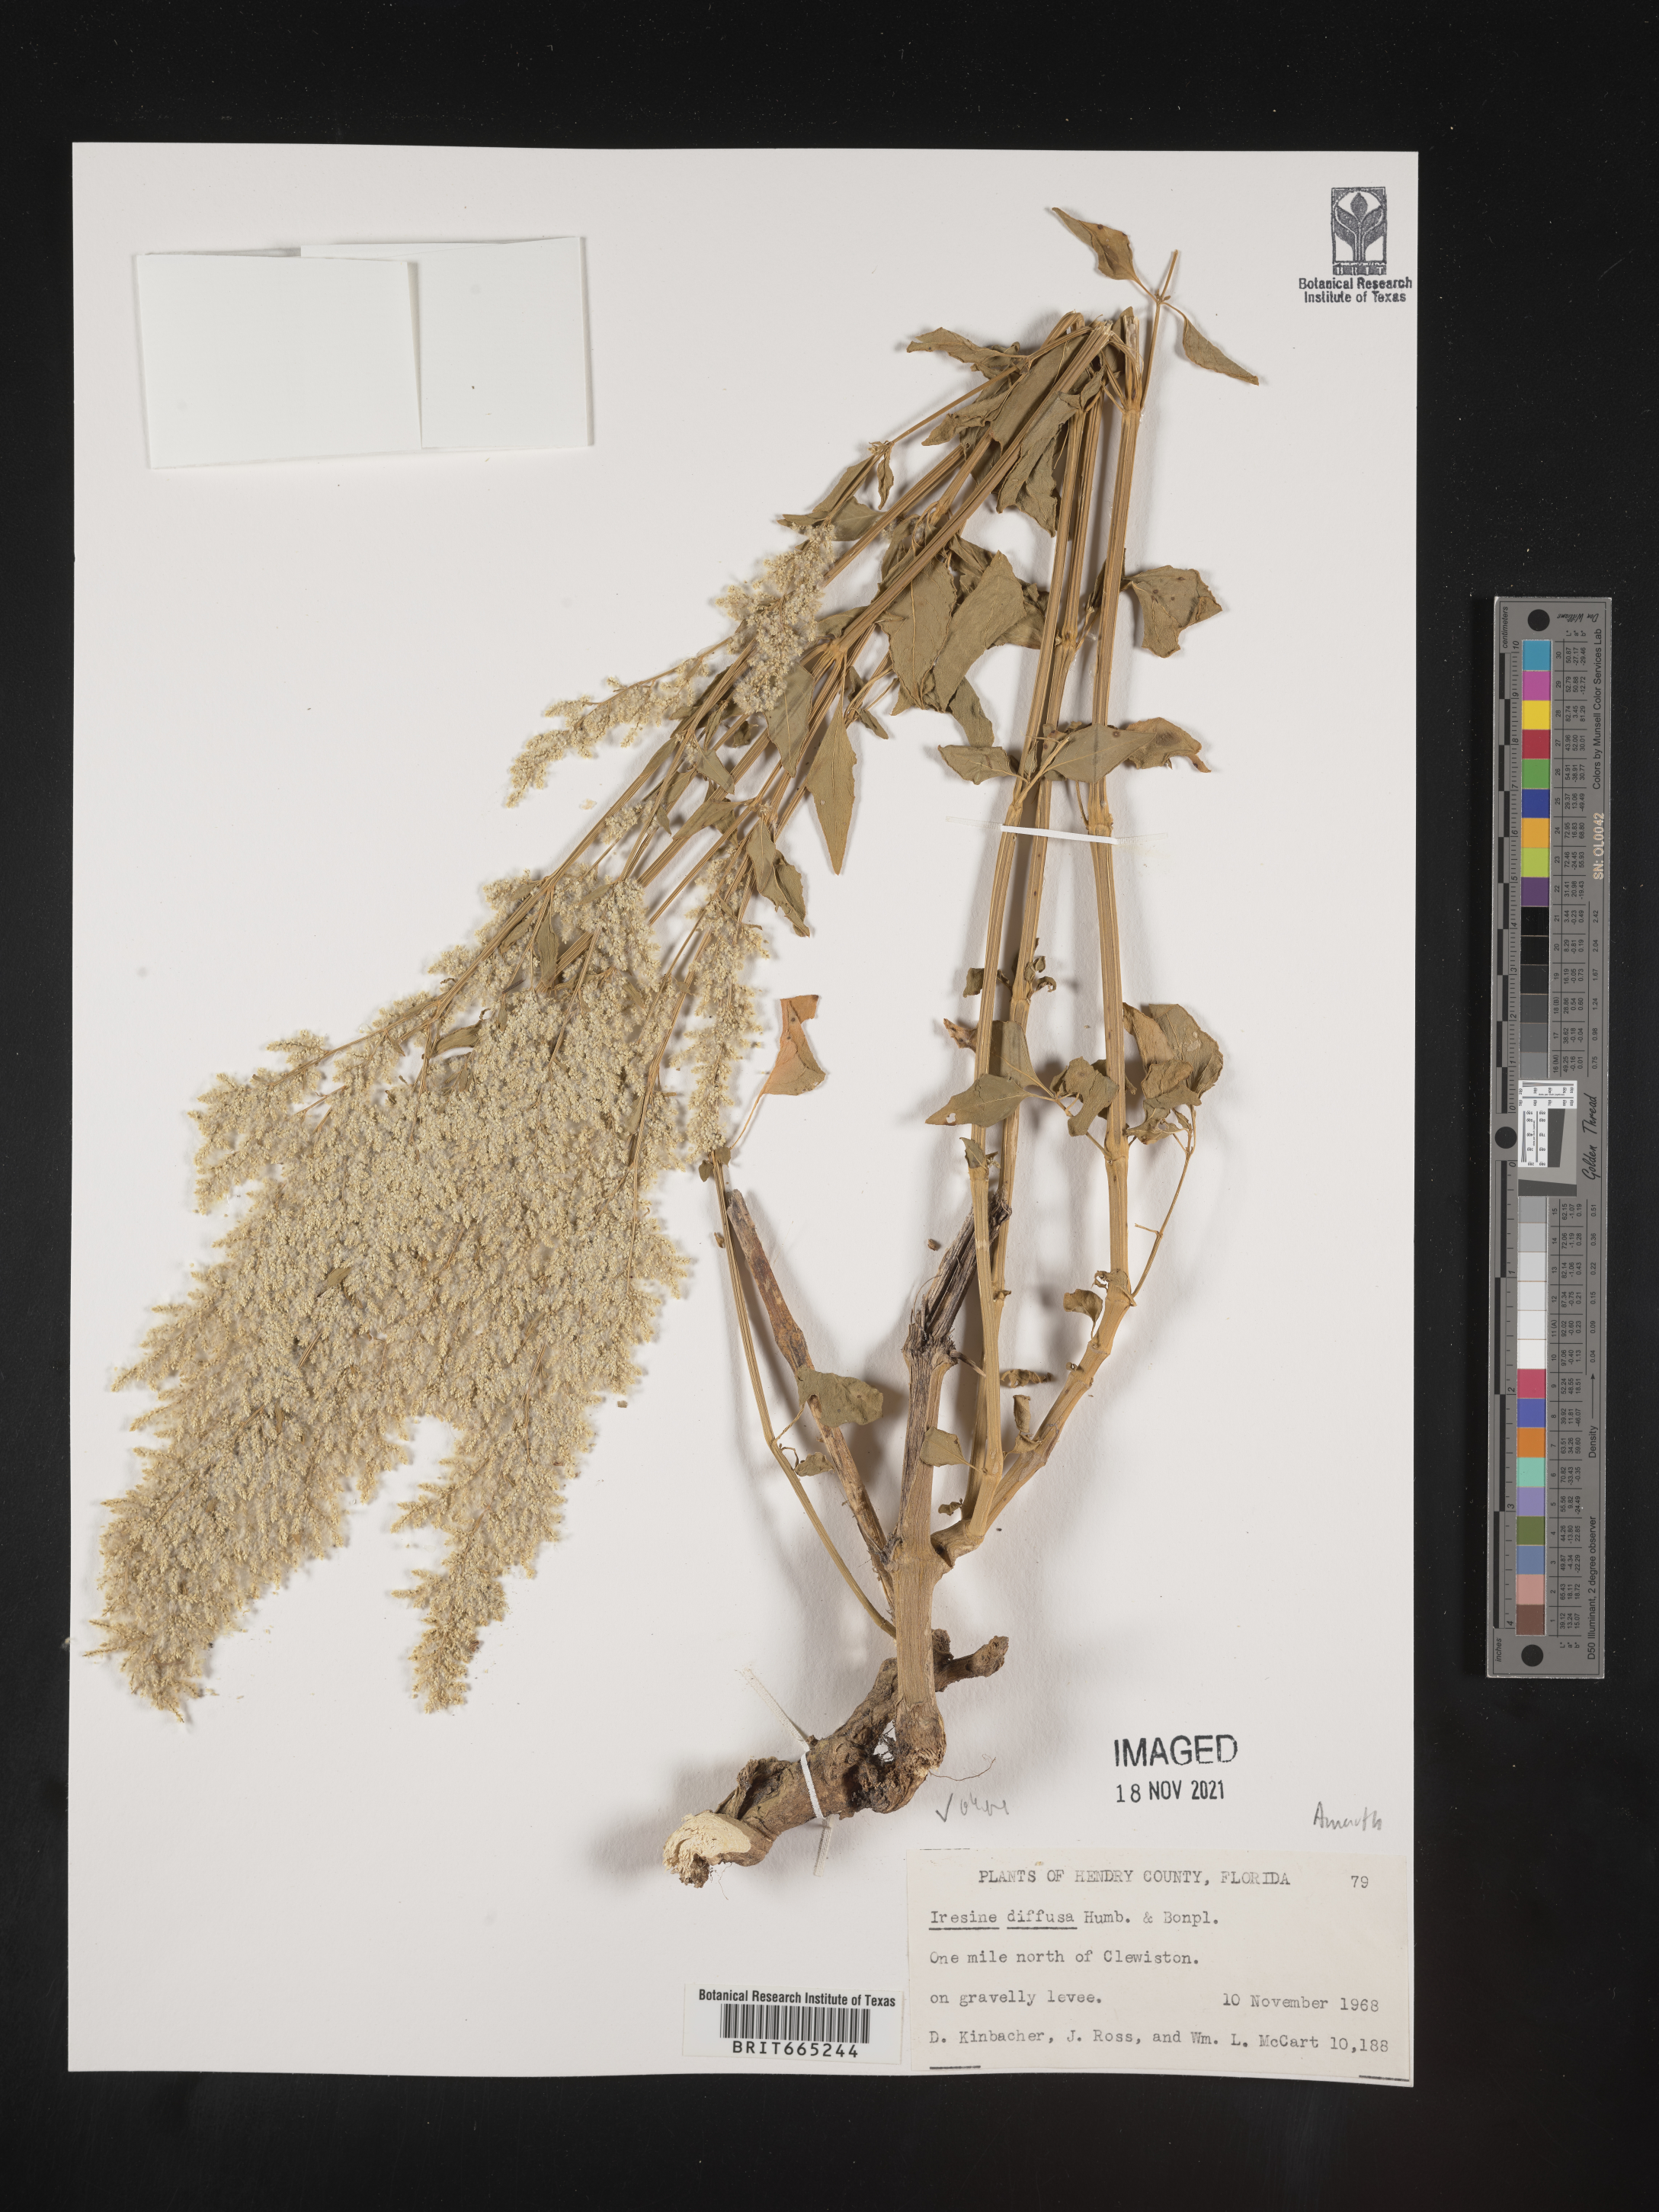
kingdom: Plantae
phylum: Tracheophyta
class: Magnoliopsida
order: Caryophyllales
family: Amaranthaceae
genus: Iresine
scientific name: Iresine
